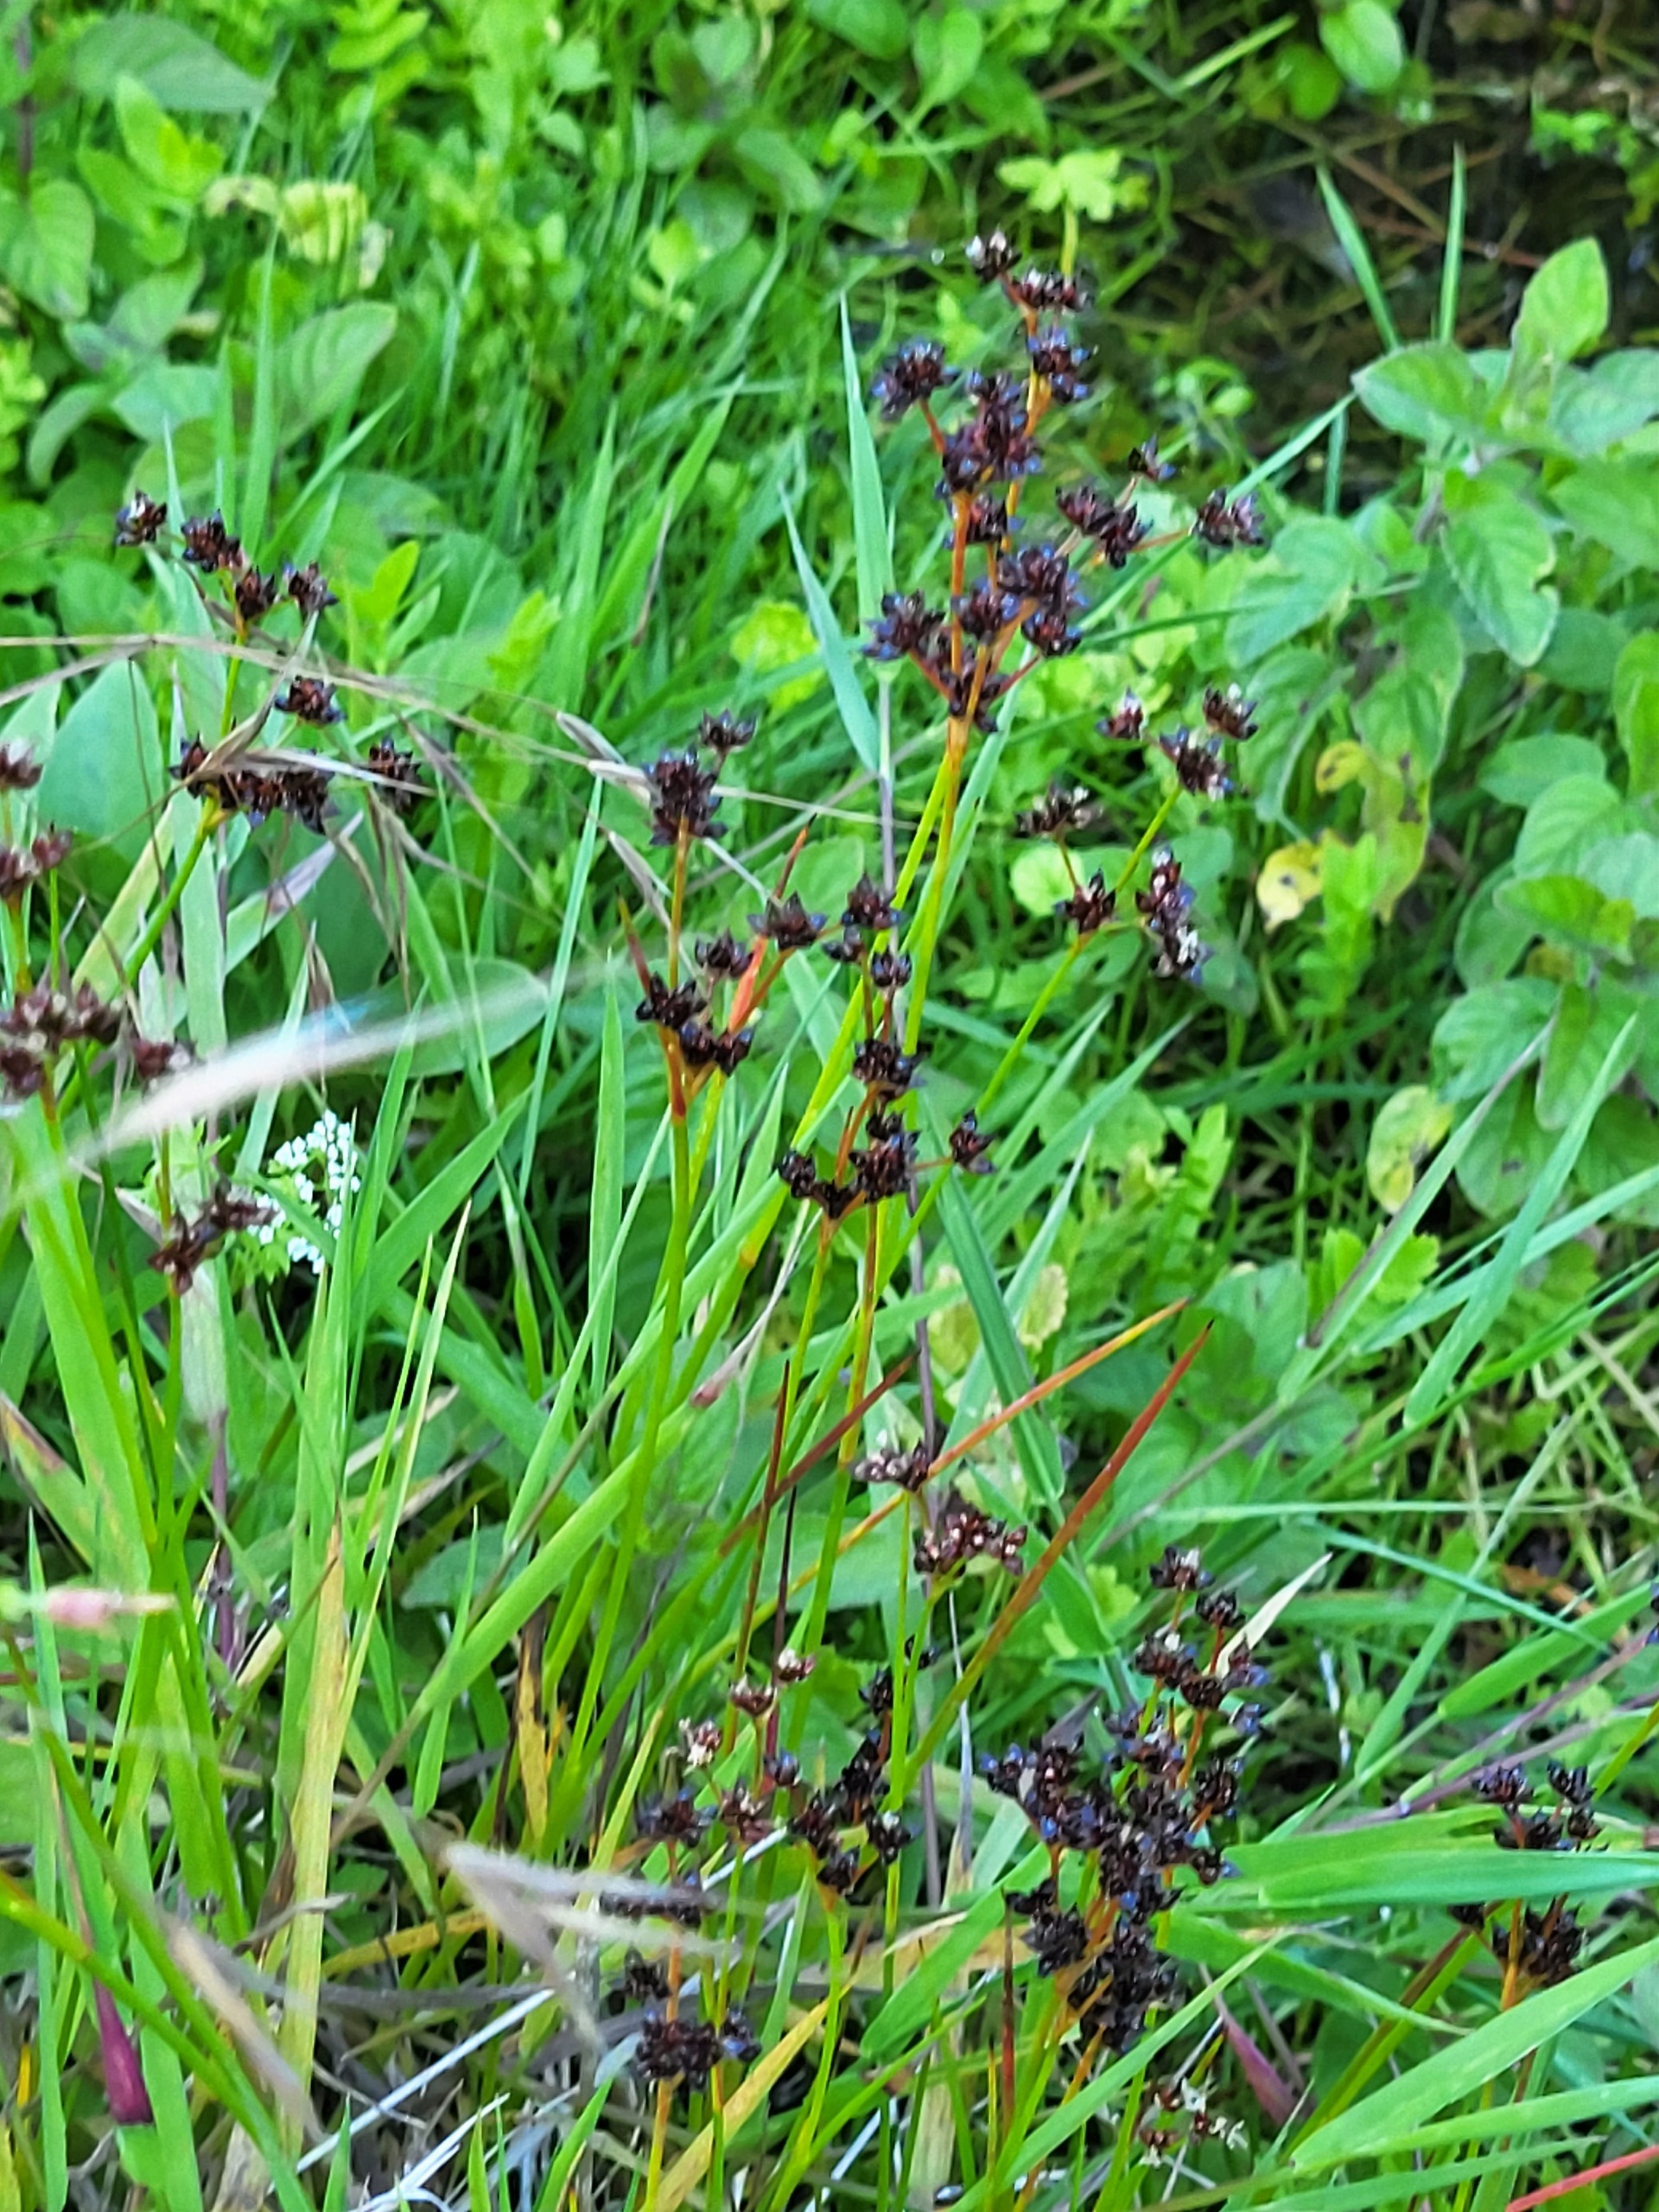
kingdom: Plantae
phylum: Tracheophyta
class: Liliopsida
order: Poales
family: Juncaceae
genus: Juncus
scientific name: Juncus articulatus
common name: Glanskapslet siv
